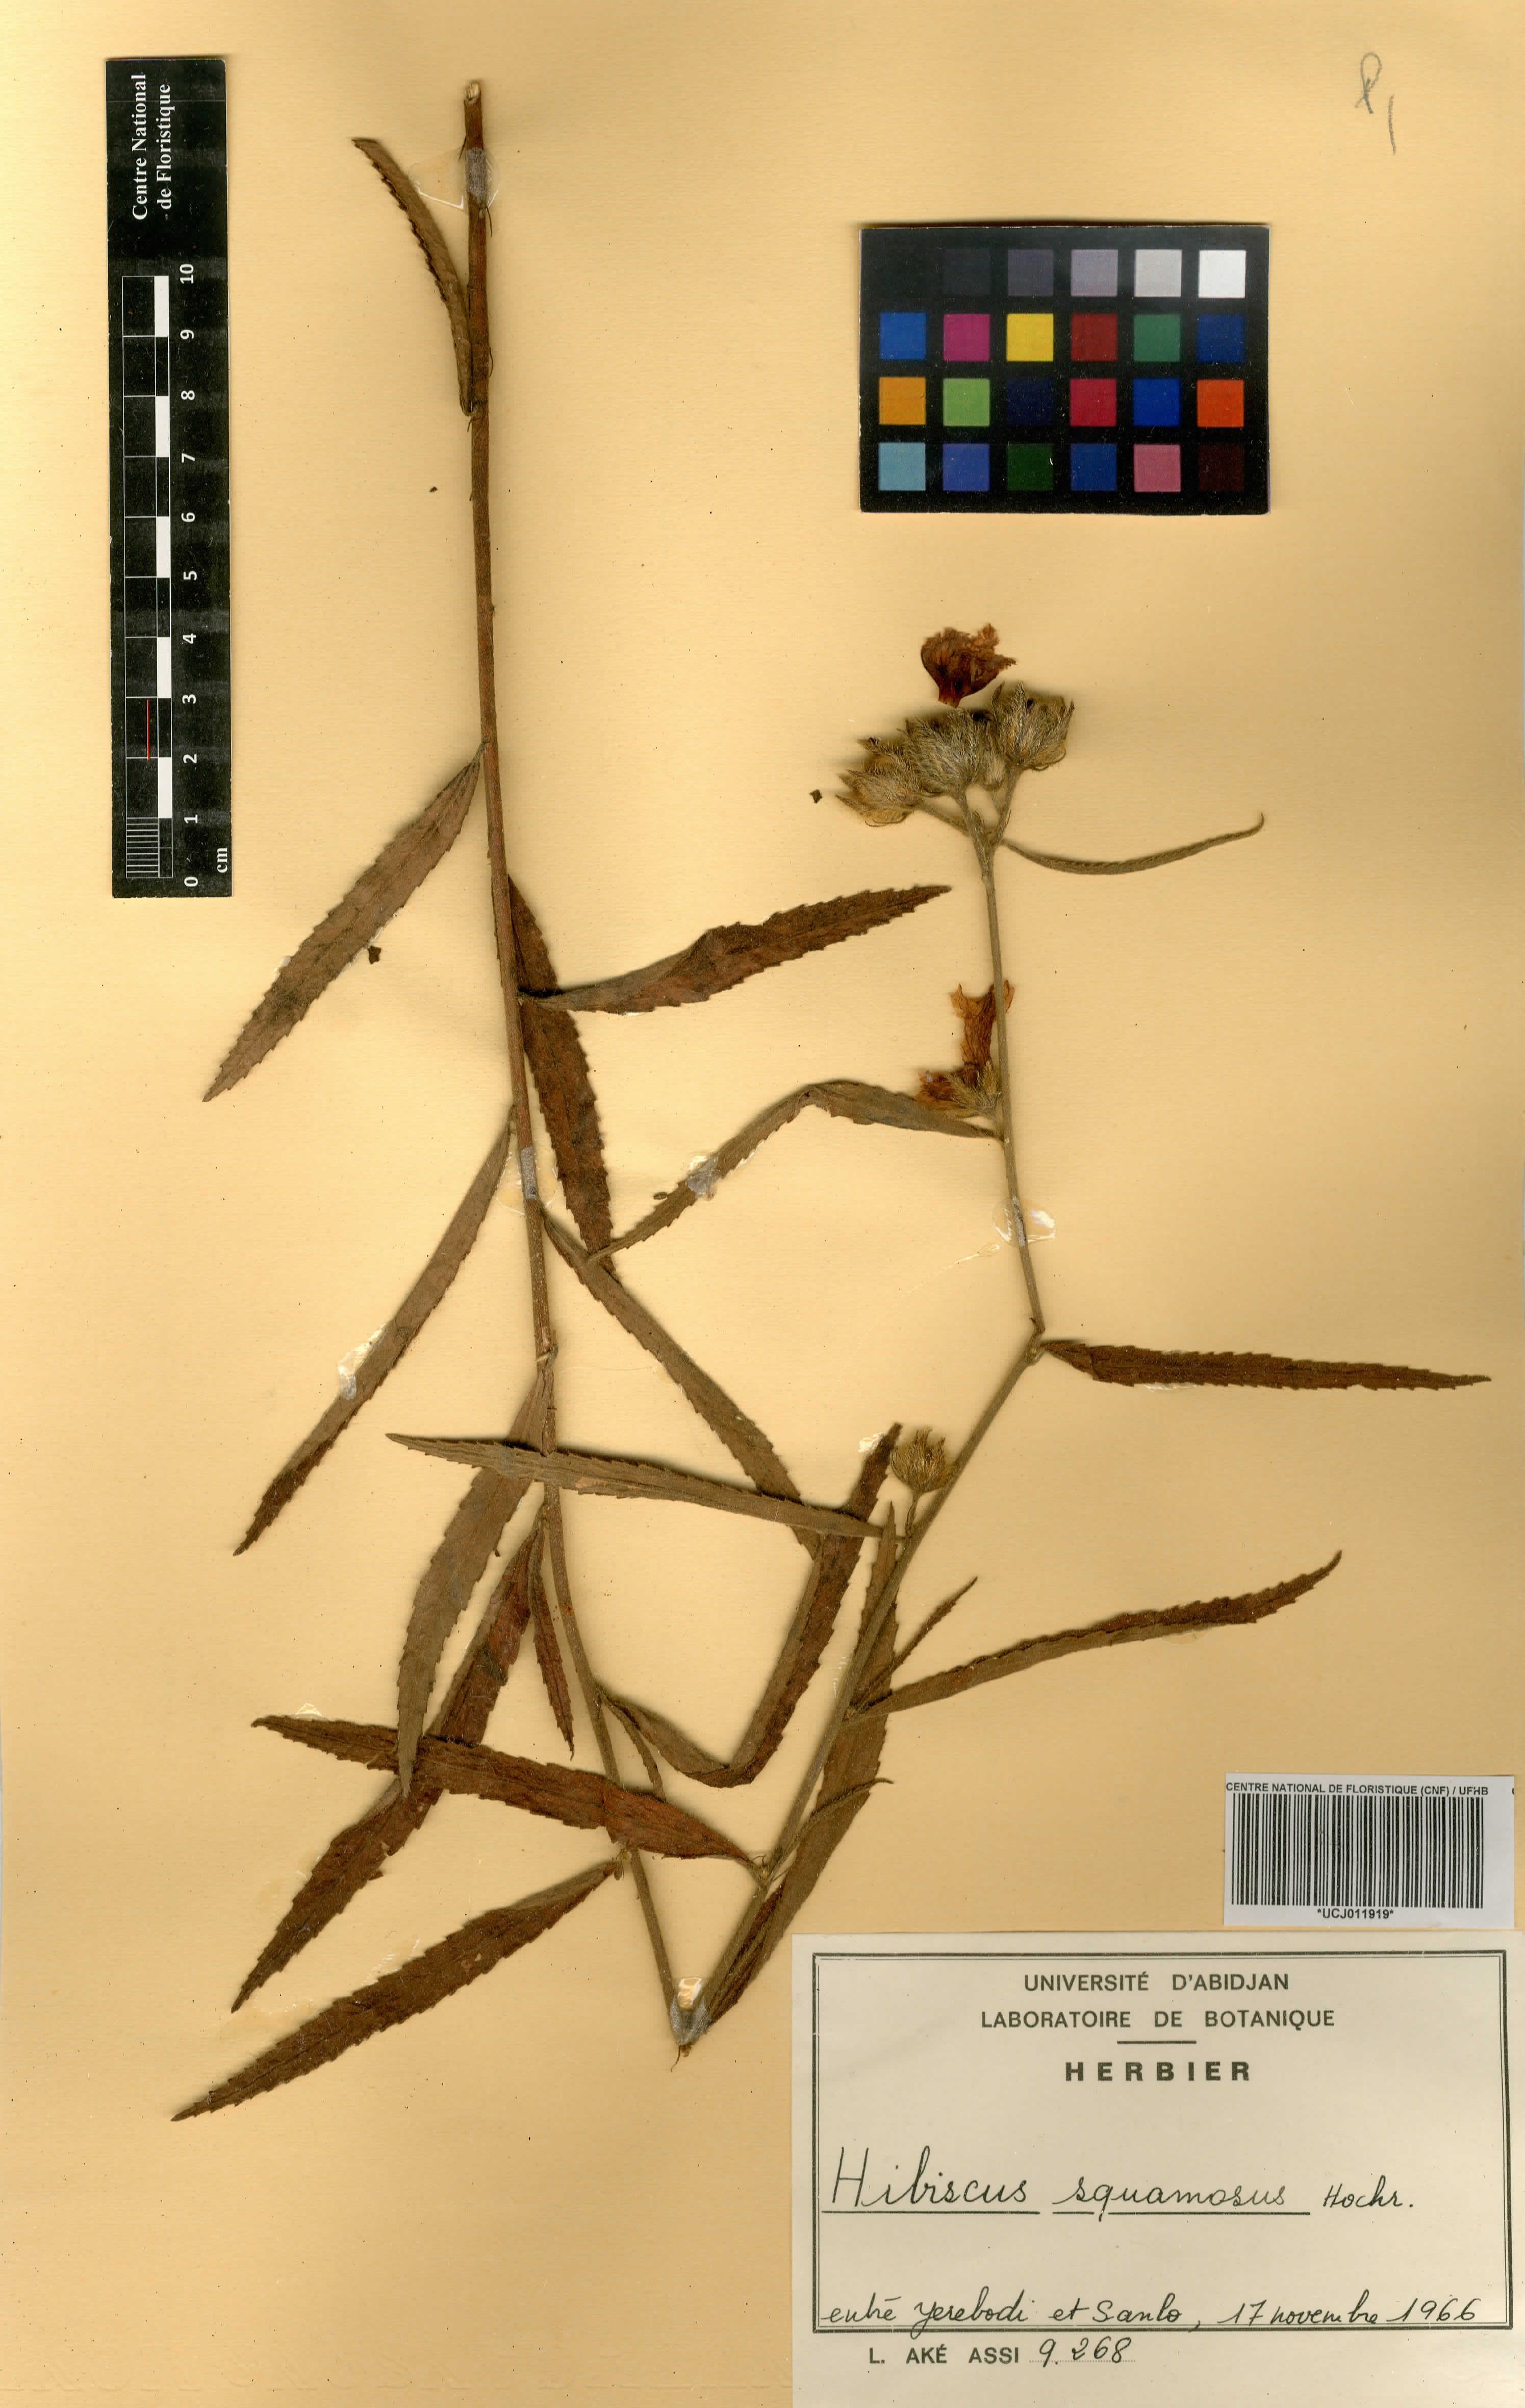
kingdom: Plantae
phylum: Tracheophyta
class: Magnoliopsida
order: Malvales
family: Malvaceae
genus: Hibiscus
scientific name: Hibiscus squamosus
